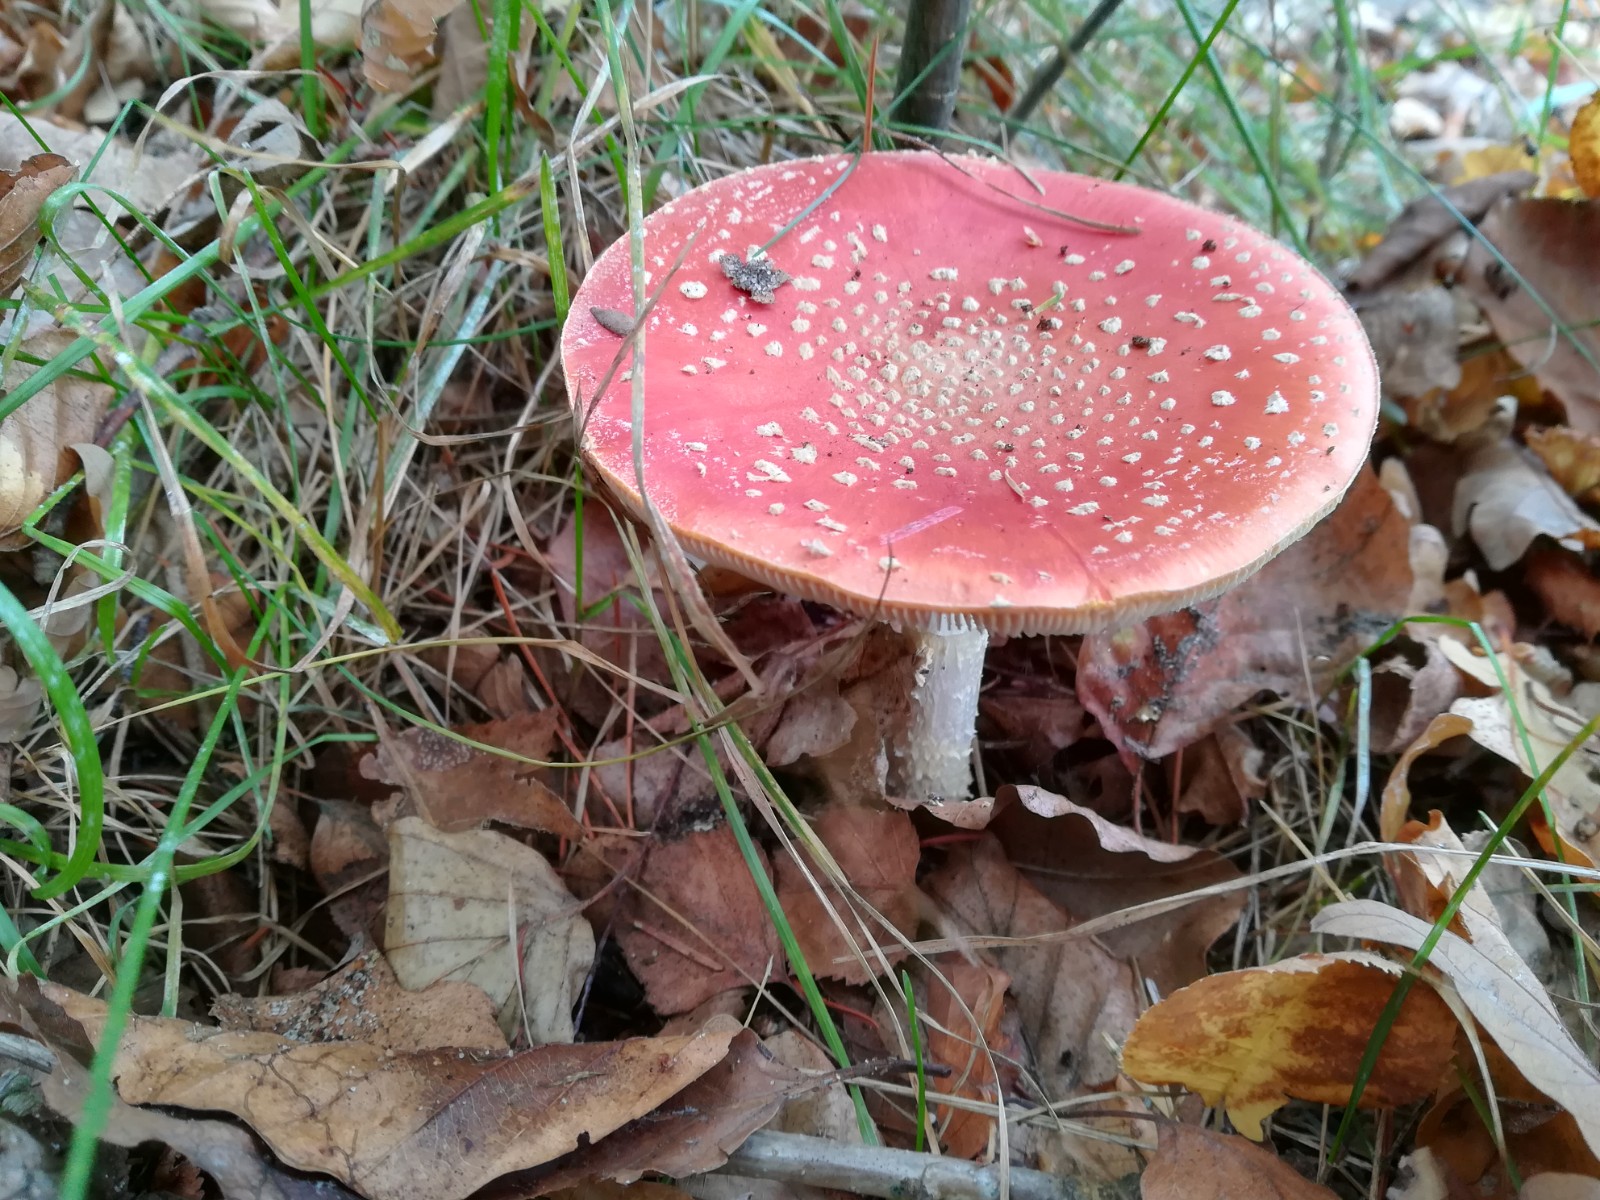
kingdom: Fungi
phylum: Basidiomycota
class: Agaricomycetes
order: Agaricales
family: Amanitaceae
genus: Amanita
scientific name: Amanita muscaria
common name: rød fluesvamp
